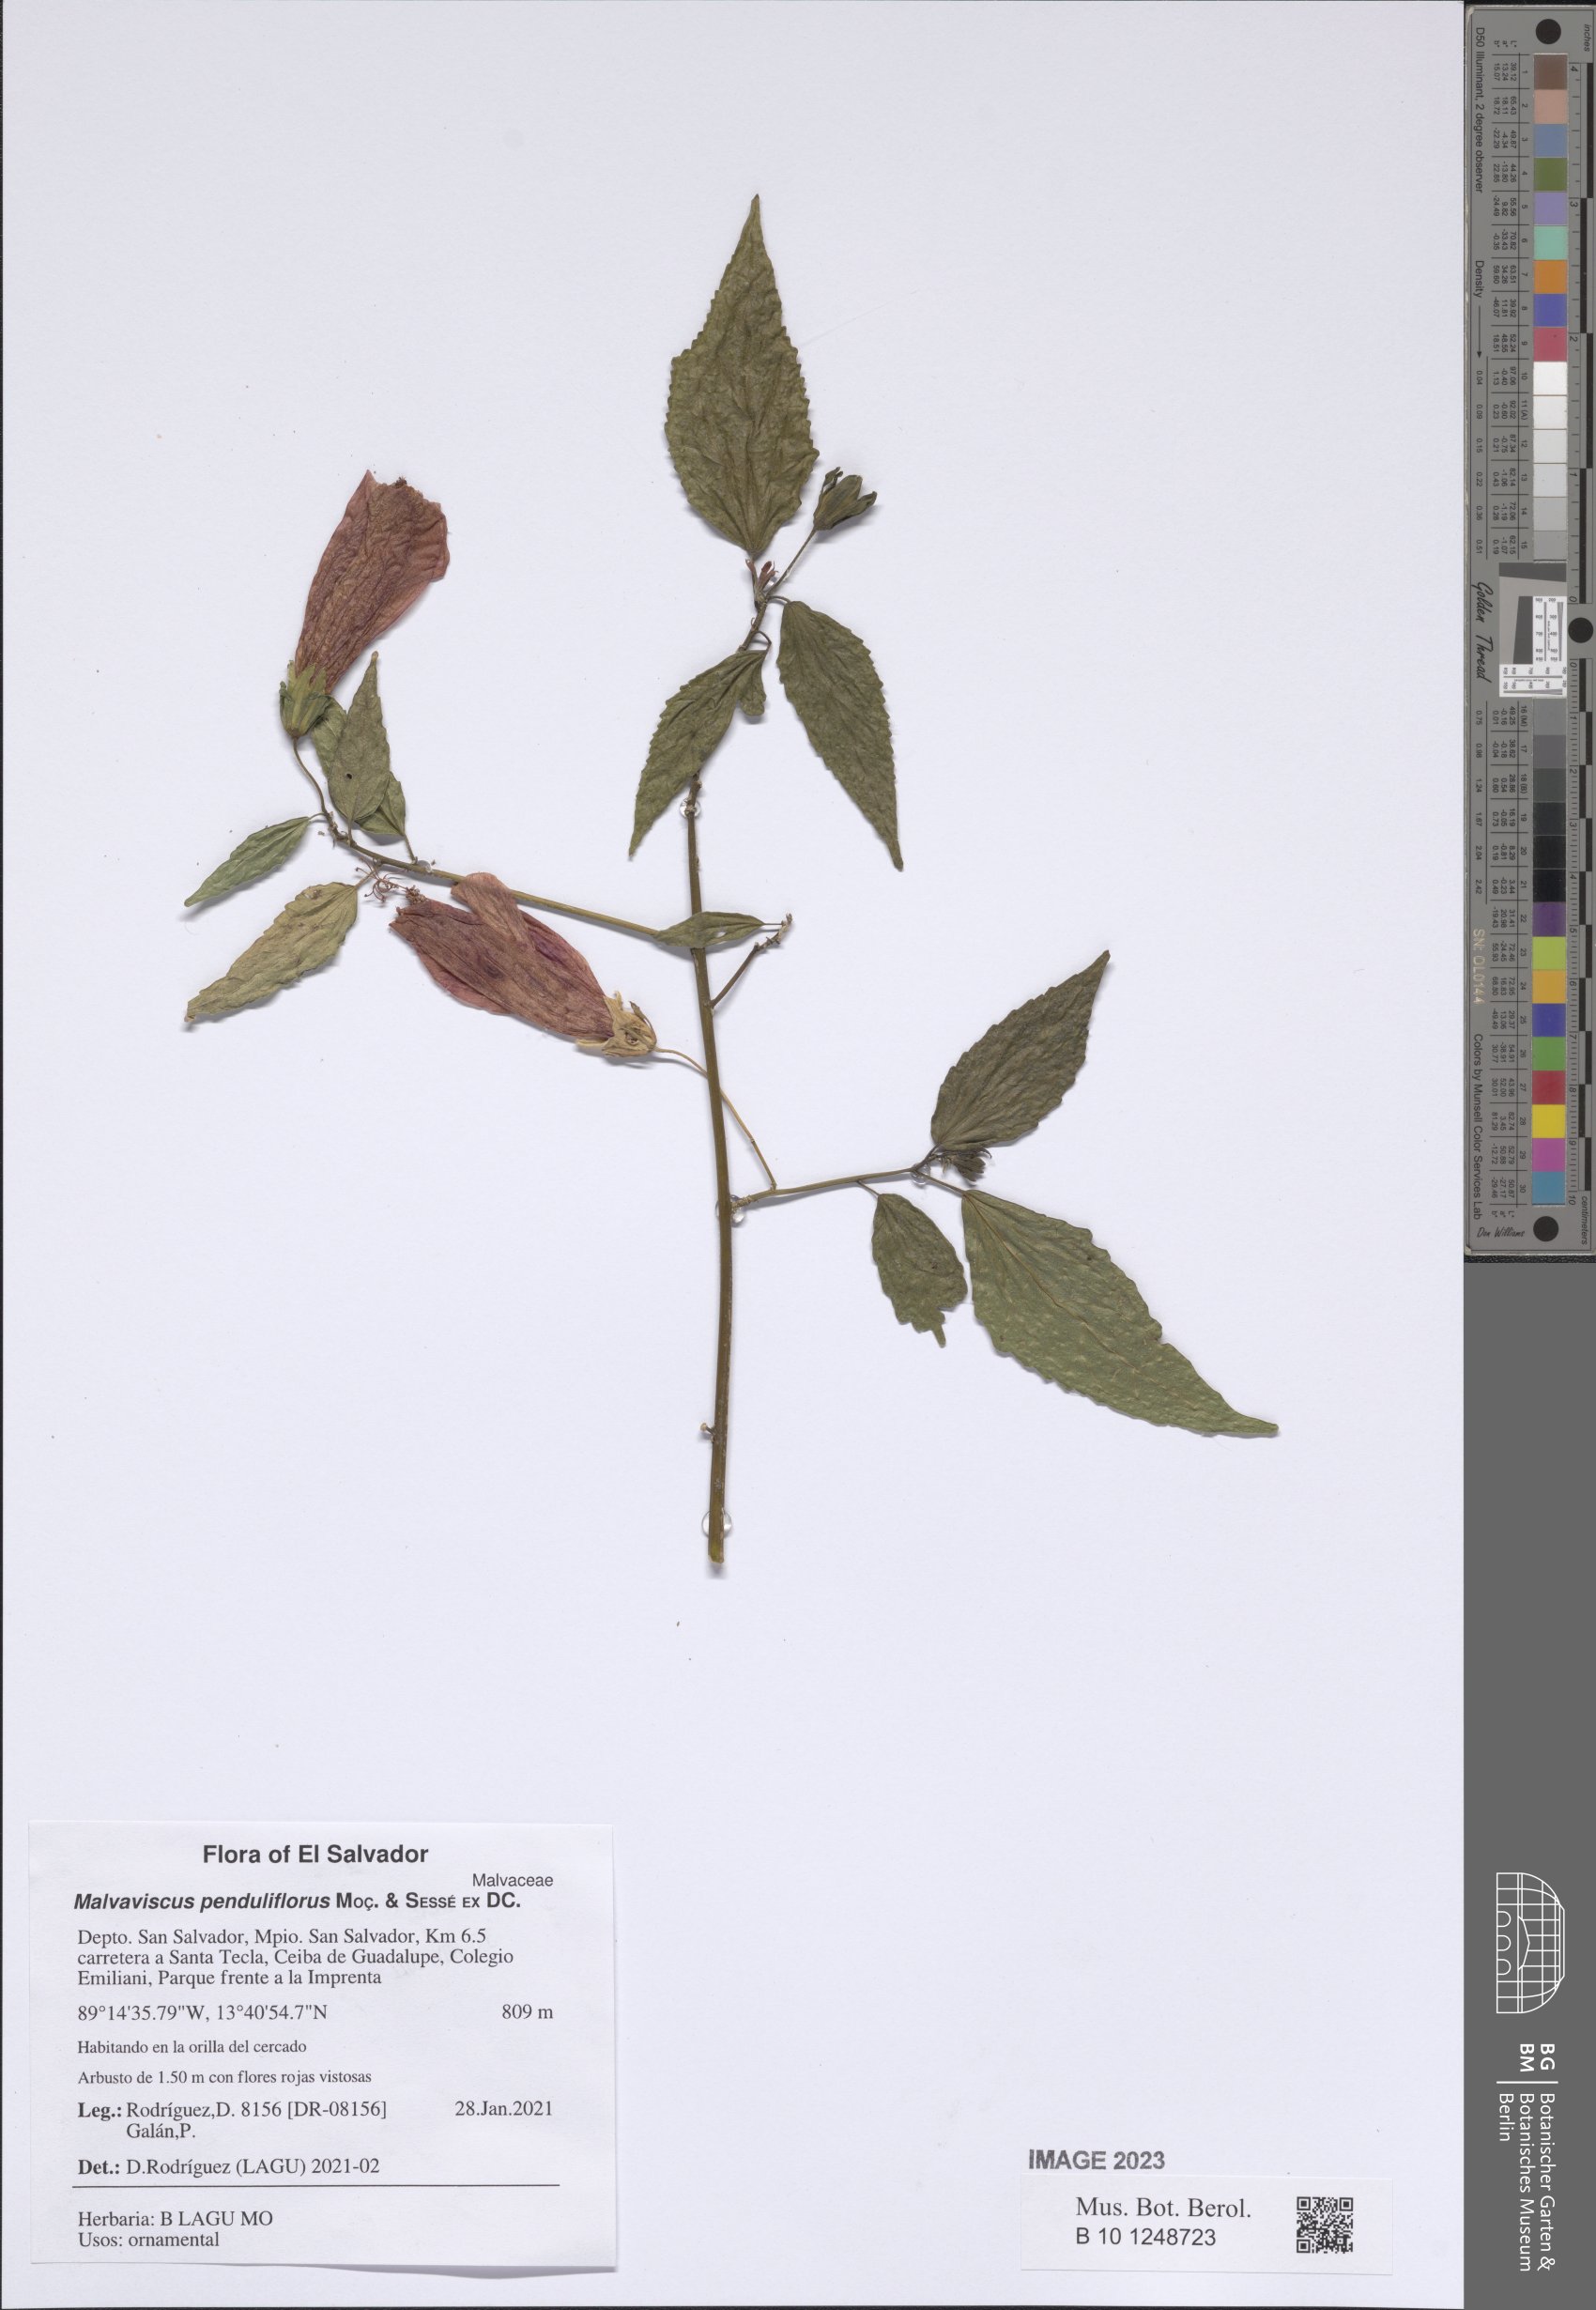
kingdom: Plantae
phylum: Tracheophyta
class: Magnoliopsida
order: Malvales
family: Malvaceae
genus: Malvaviscus
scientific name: Malvaviscus penduliflorus
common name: Mazapan
